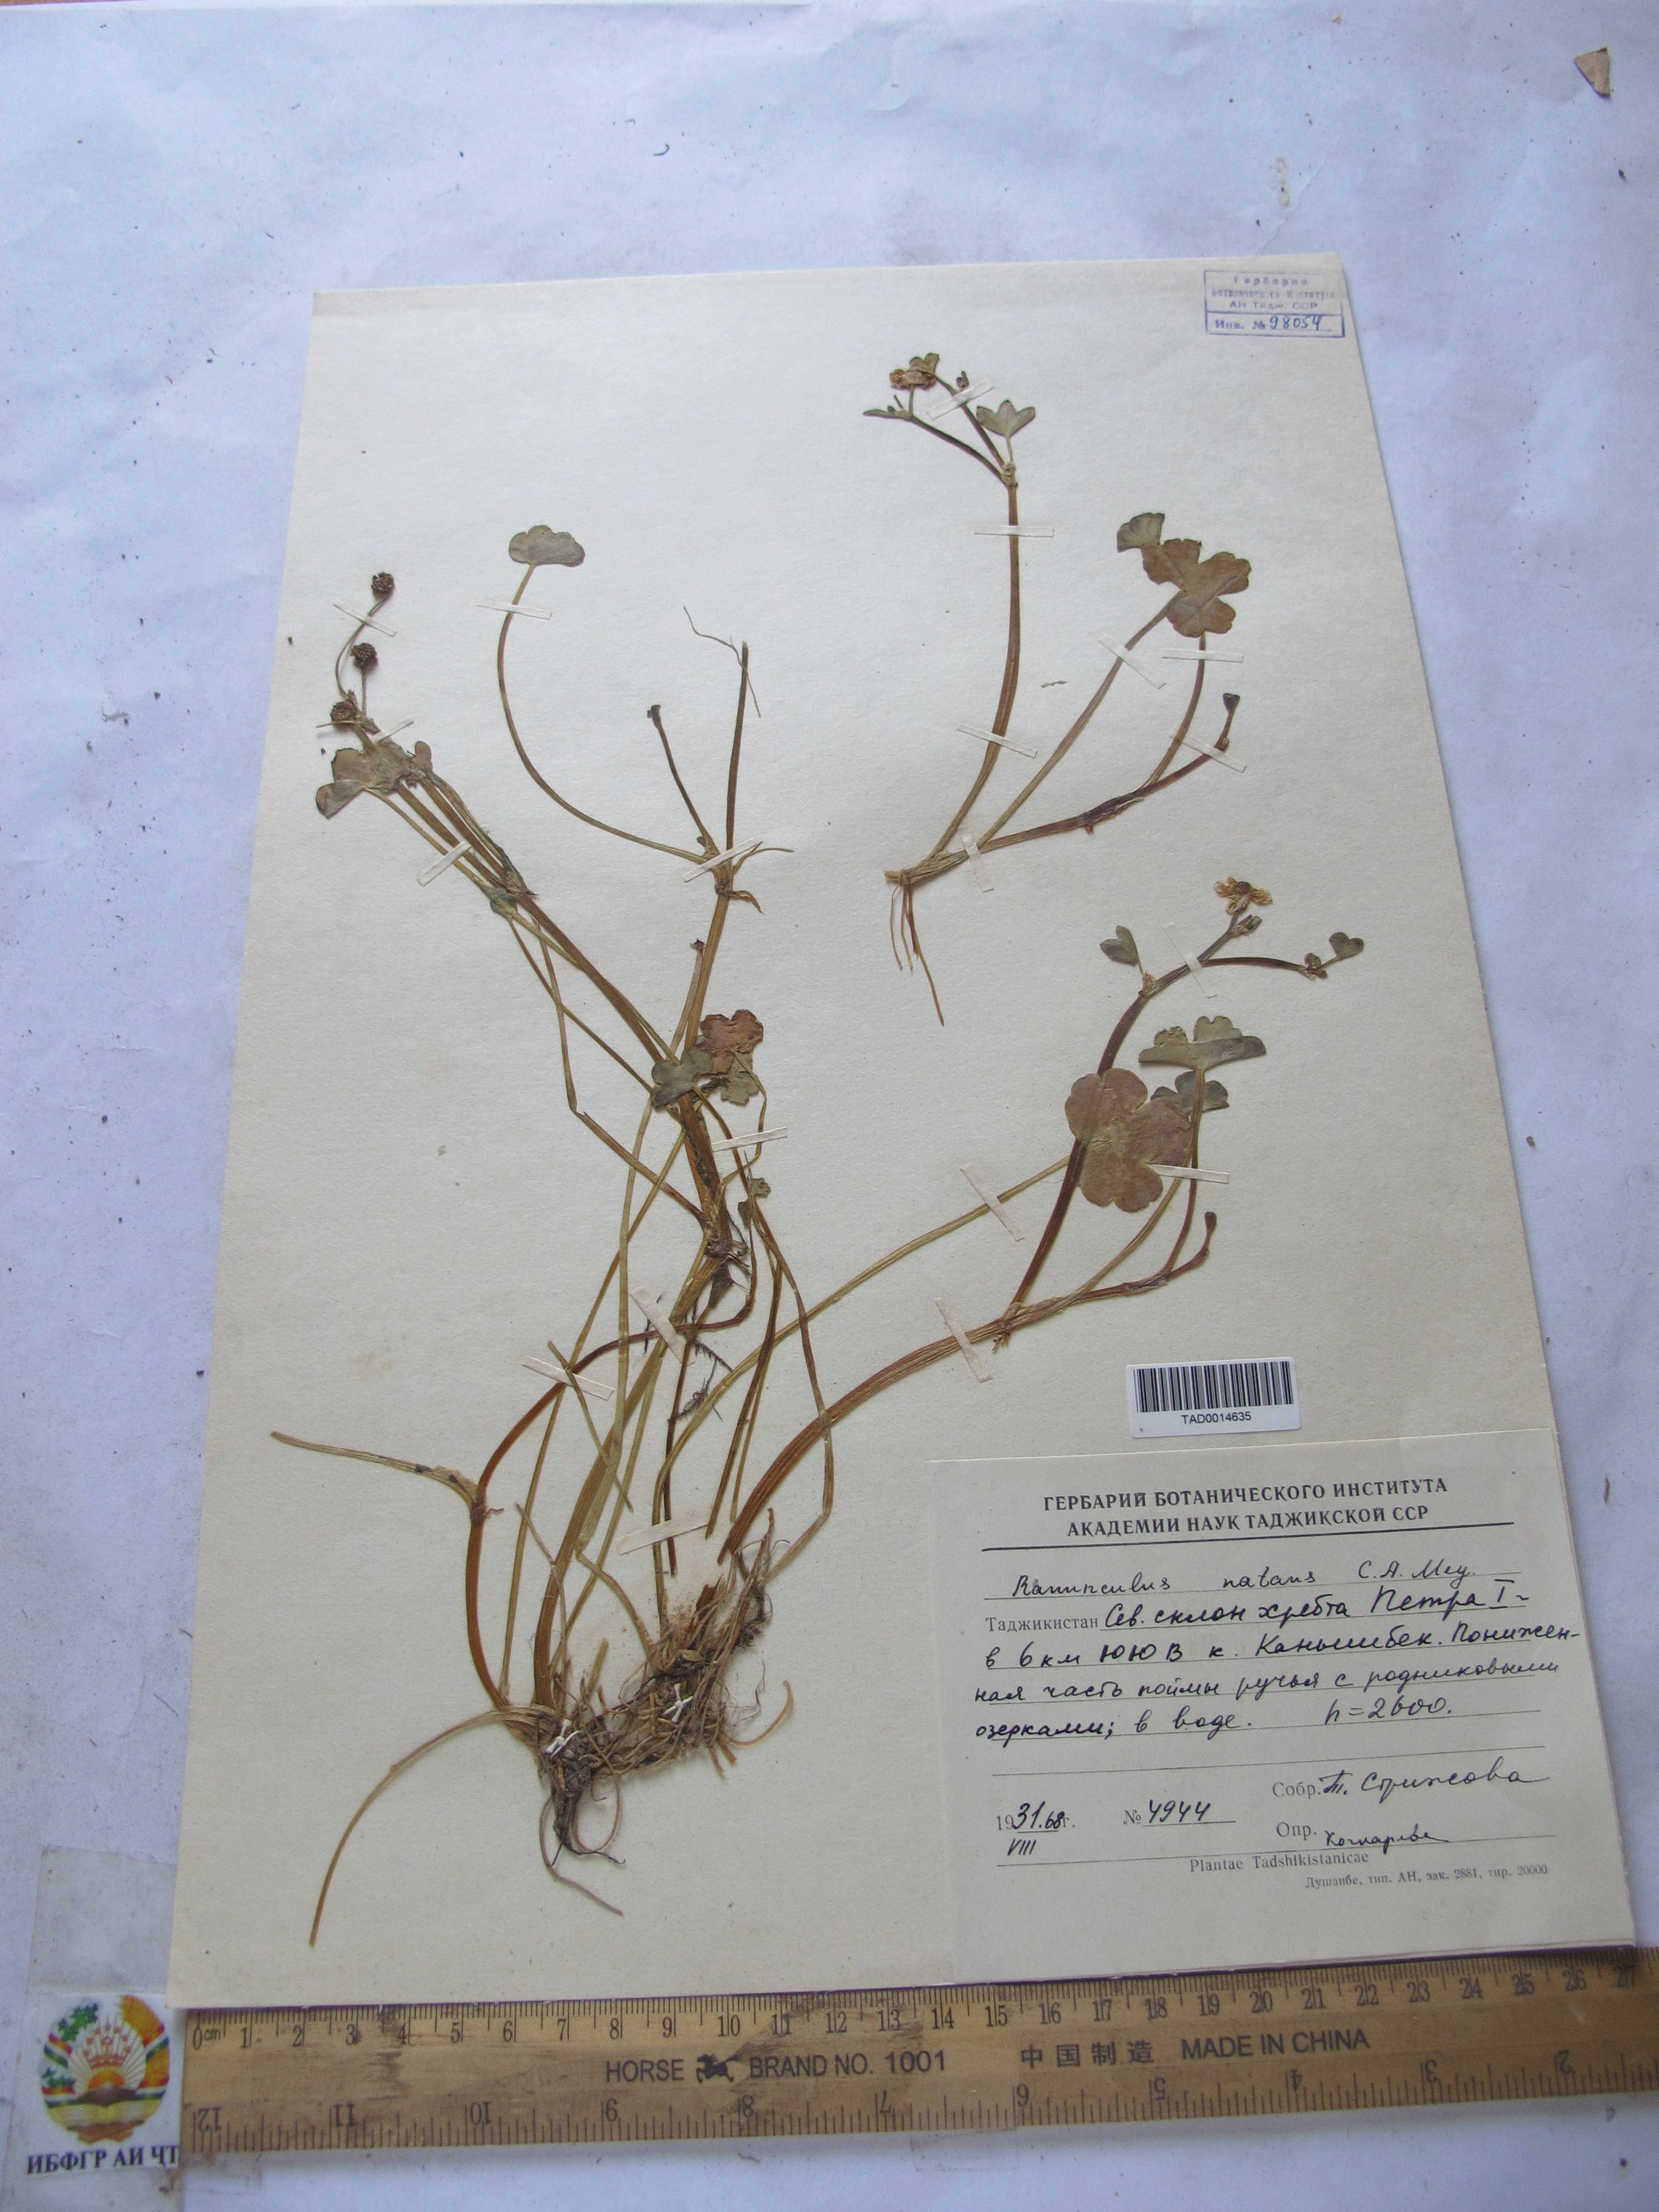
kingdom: Plantae
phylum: Tracheophyta
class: Magnoliopsida
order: Ranunculales
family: Ranunculaceae
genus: Ranunculus
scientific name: Ranunculus natans
